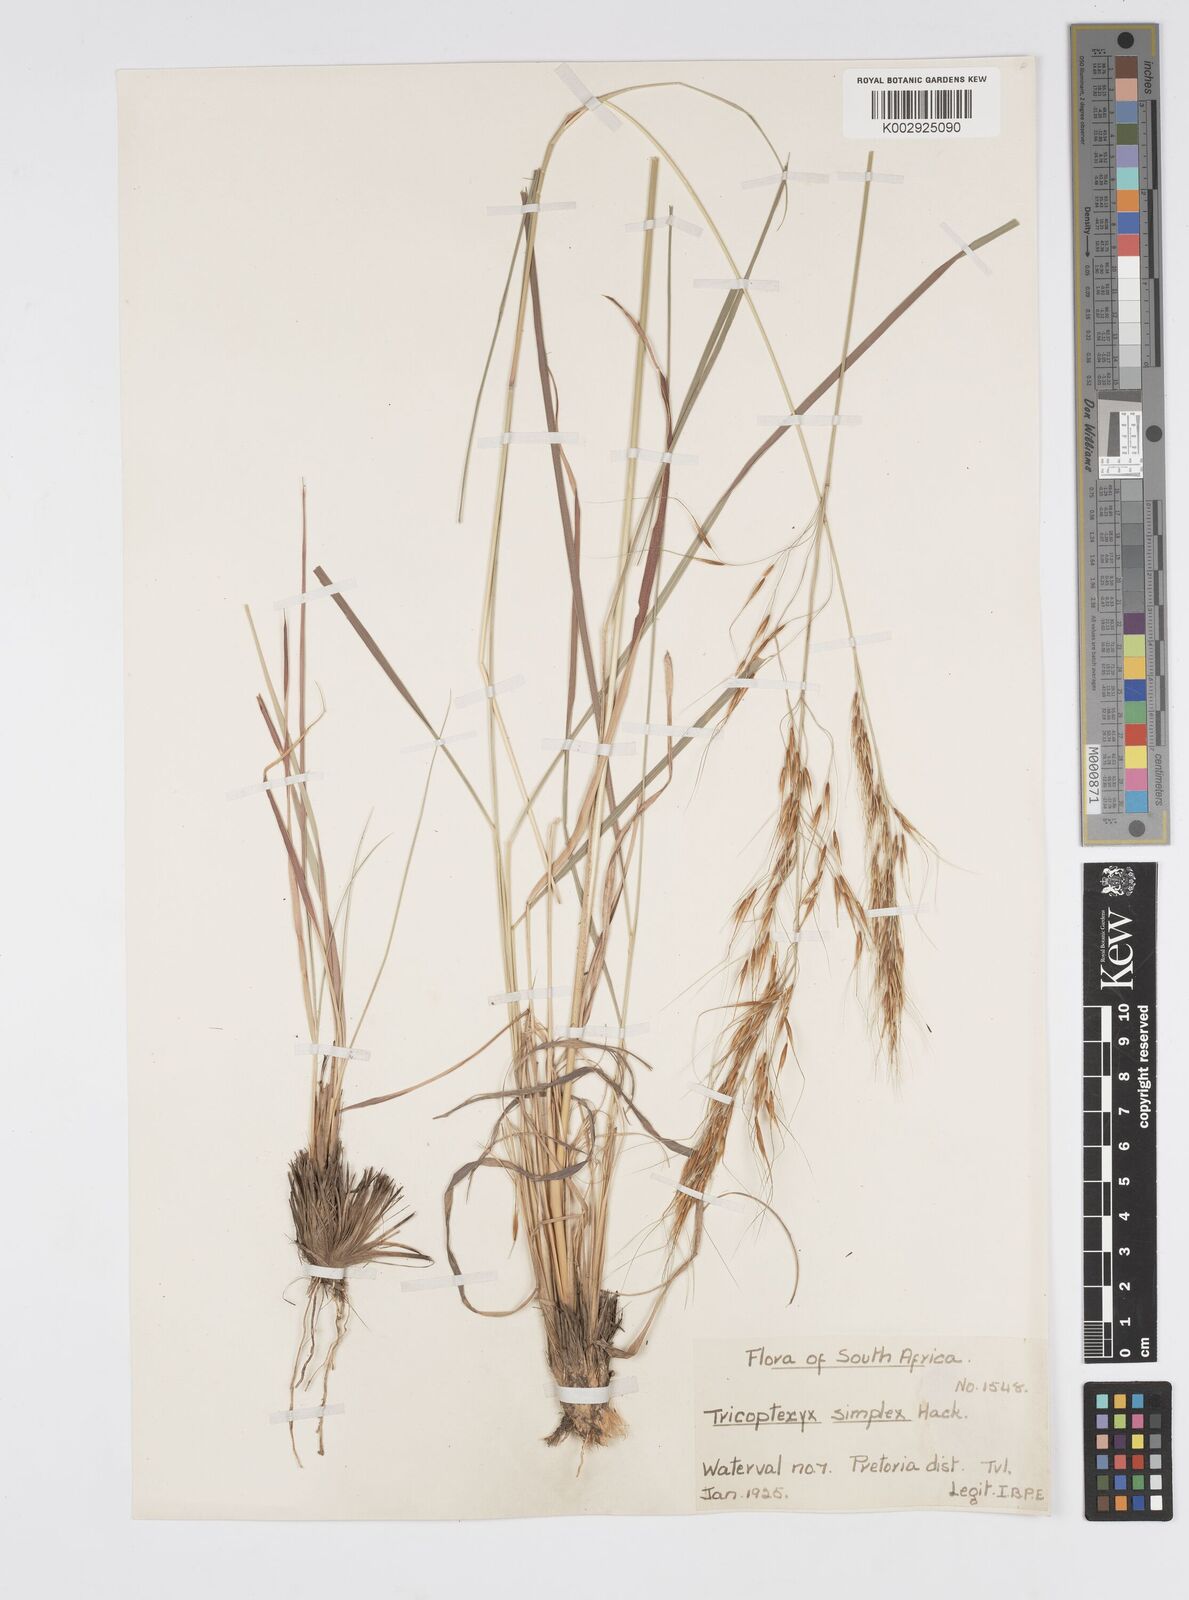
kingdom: Plantae
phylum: Tracheophyta
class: Liliopsida
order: Poales
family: Poaceae
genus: Loudetia
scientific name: Loudetia simplex
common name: Common russet grass
